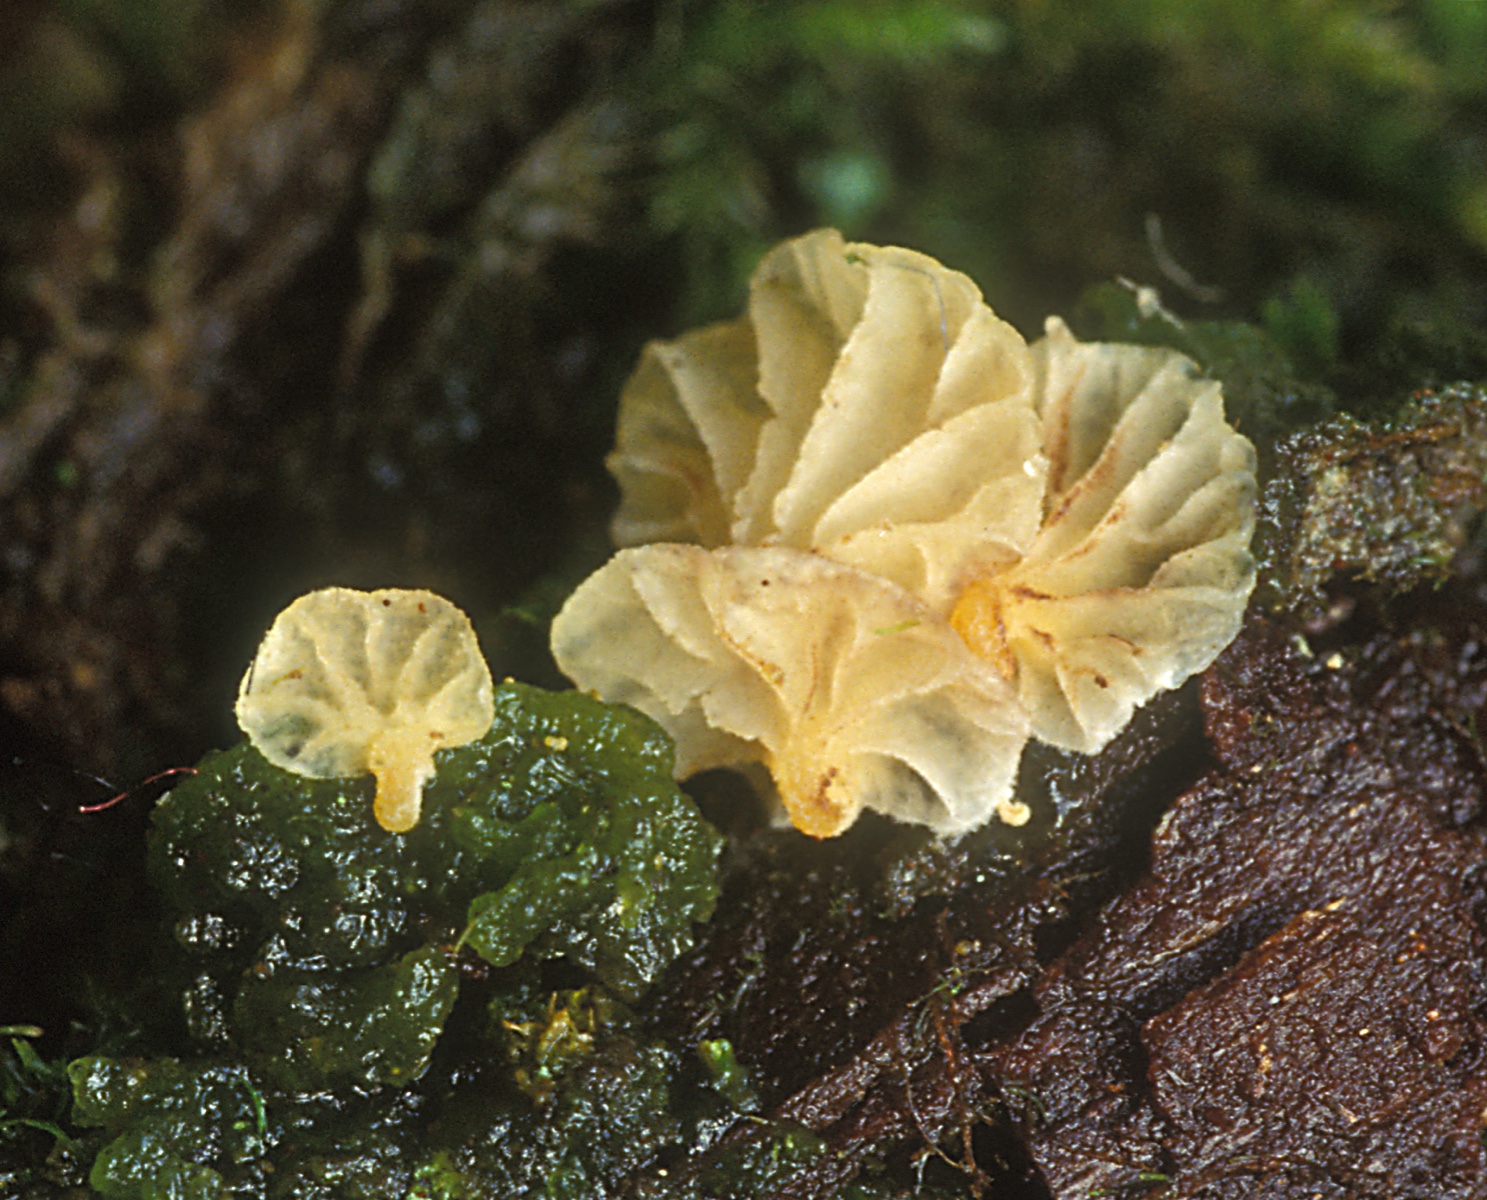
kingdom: Fungi
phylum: Basidiomycota
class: Agaricomycetes
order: Agaricales
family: Chromocyphellaceae
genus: Chromocyphella
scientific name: Chromocyphella lamellata
